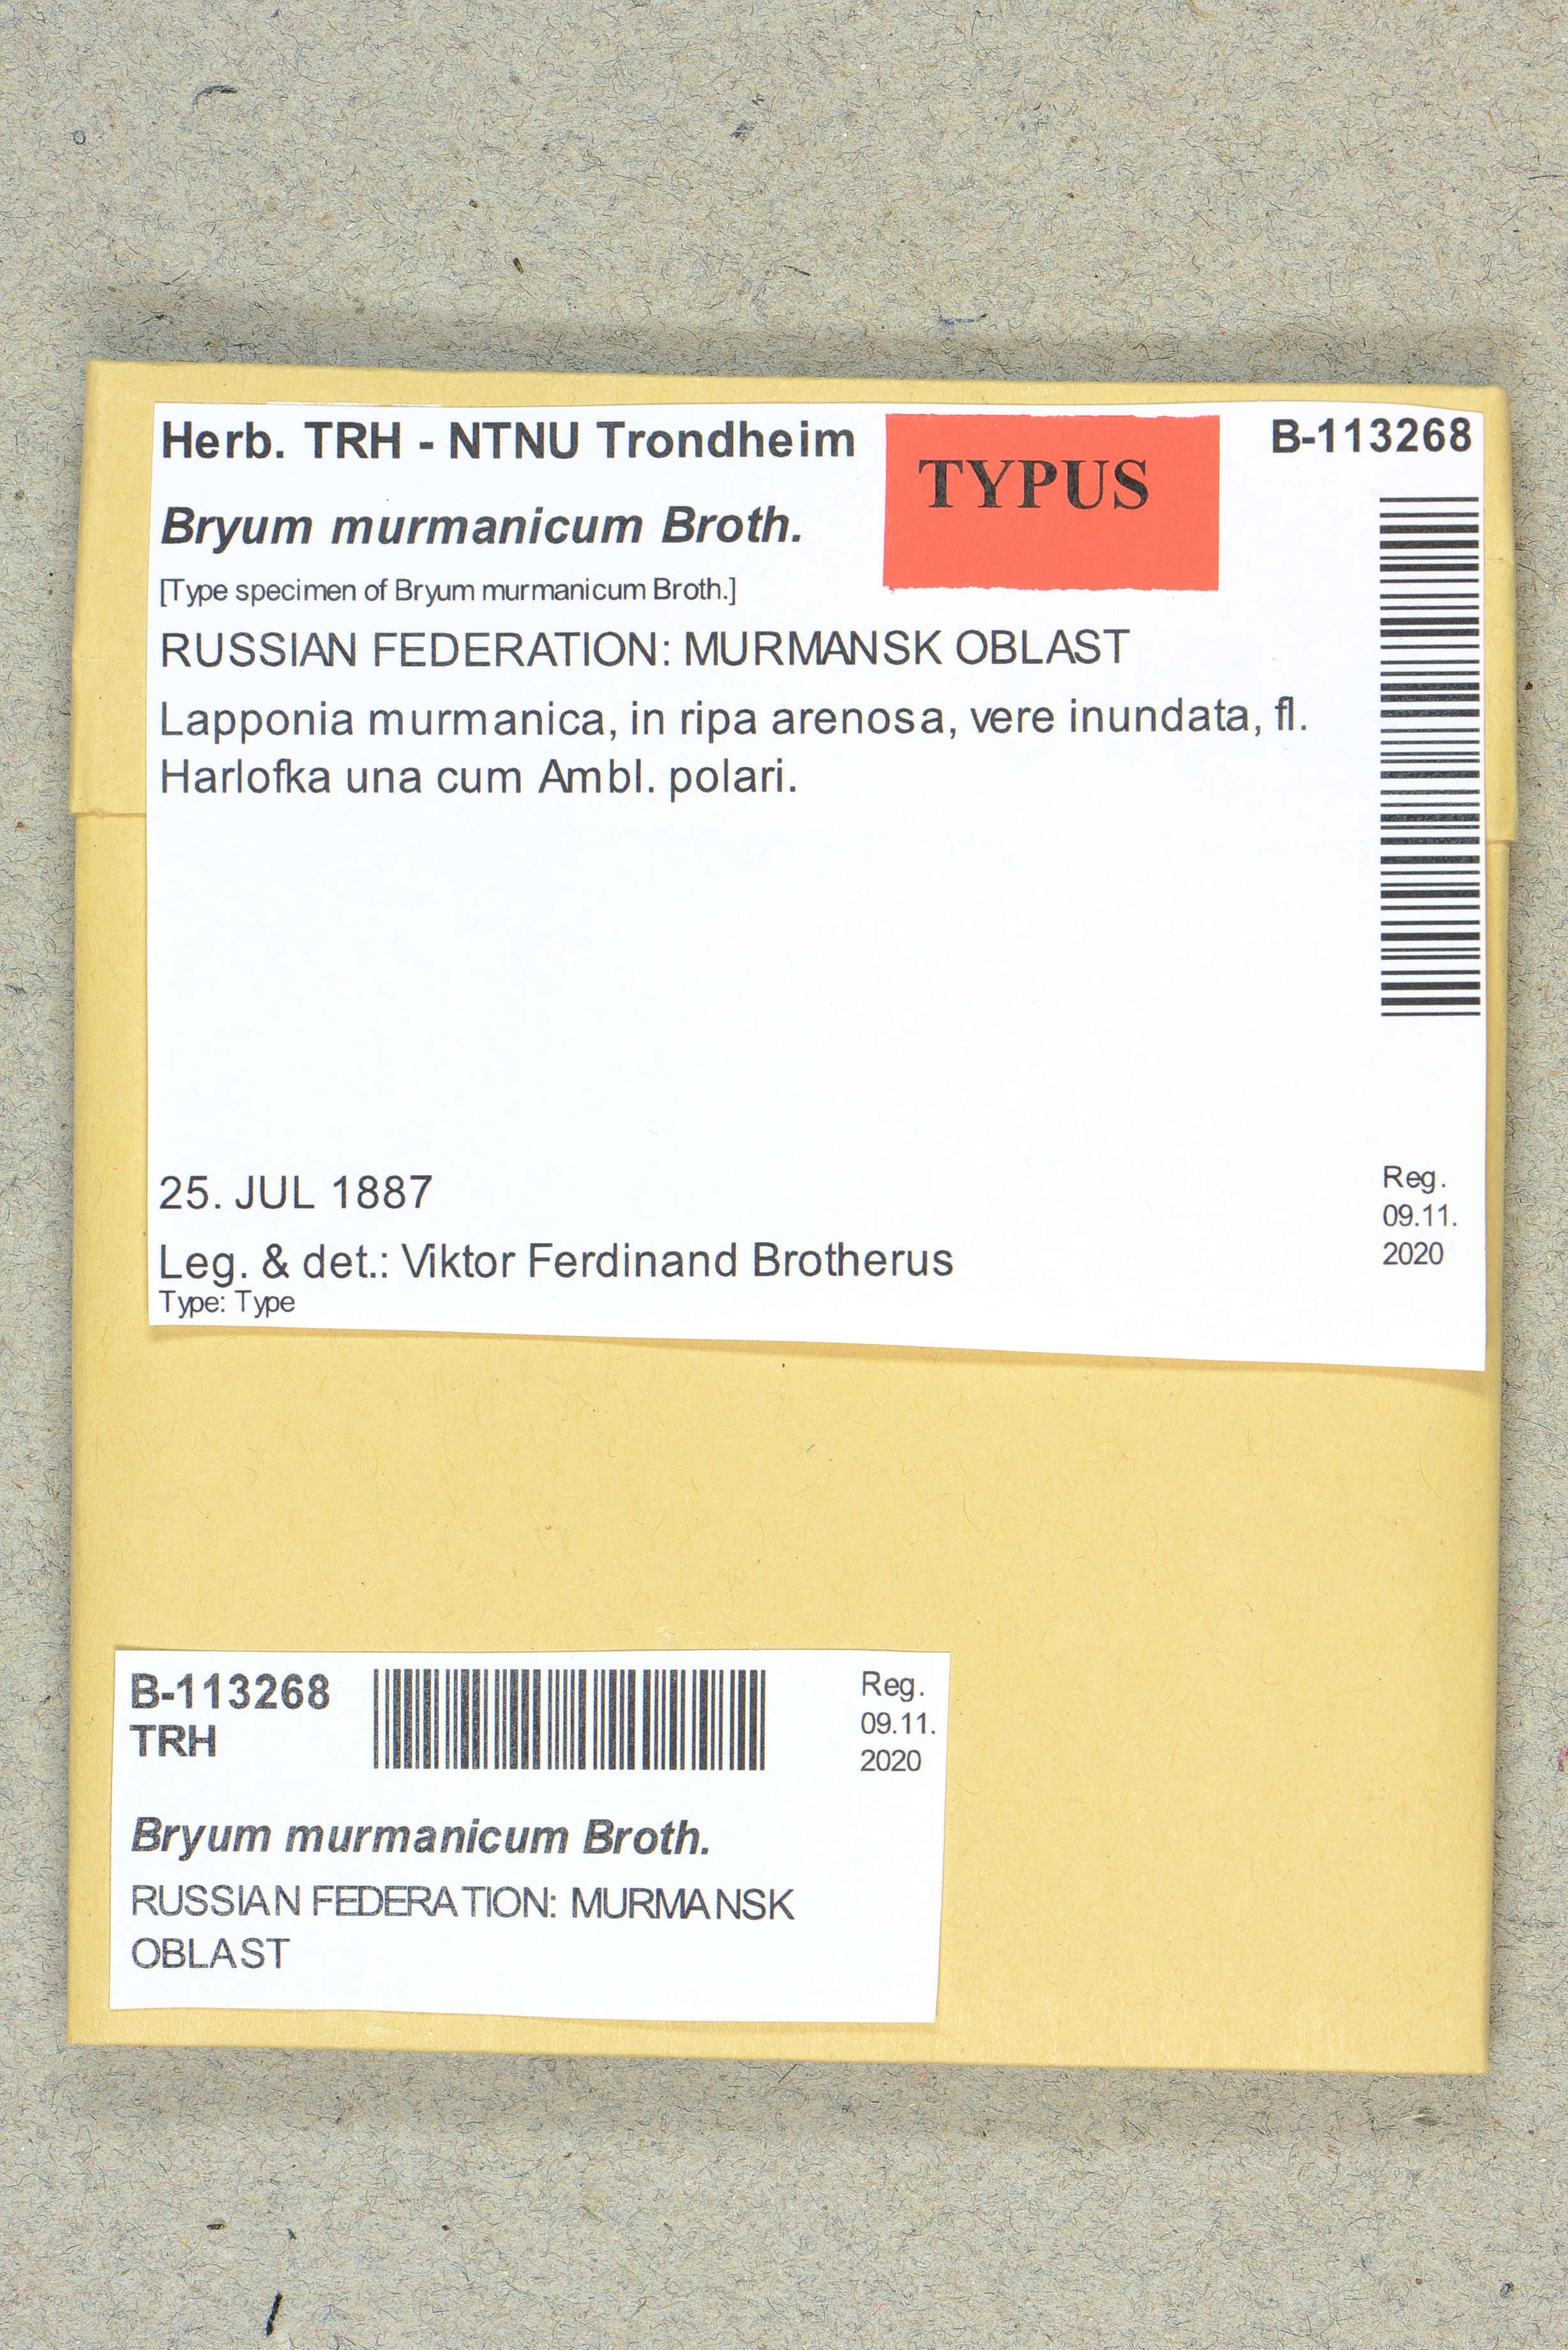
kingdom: Plantae
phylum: Bryophyta
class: Bryopsida
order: Bryales
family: Bryaceae
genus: Ptychostomum
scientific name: Ptychostomum inclinatum
